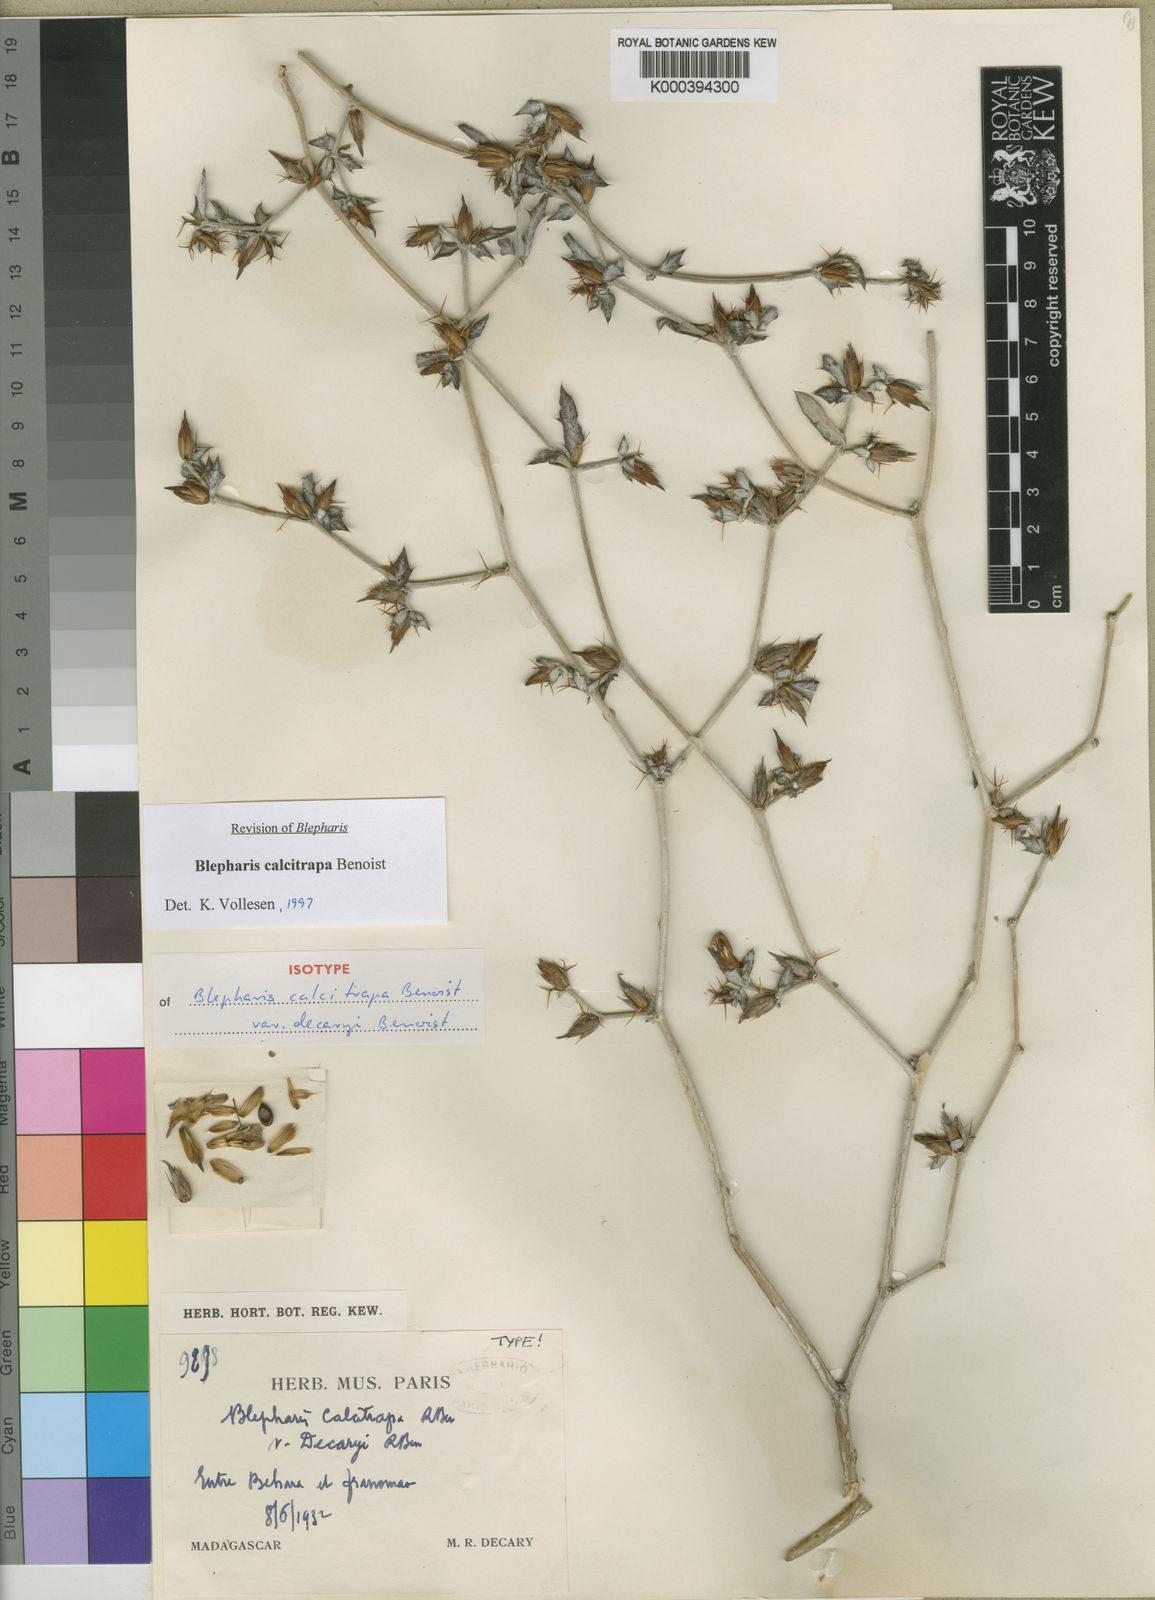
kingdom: Plantae
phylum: Tracheophyta
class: Magnoliopsida
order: Lamiales
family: Acanthaceae
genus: Blepharis
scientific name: Blepharis calcitrapa
